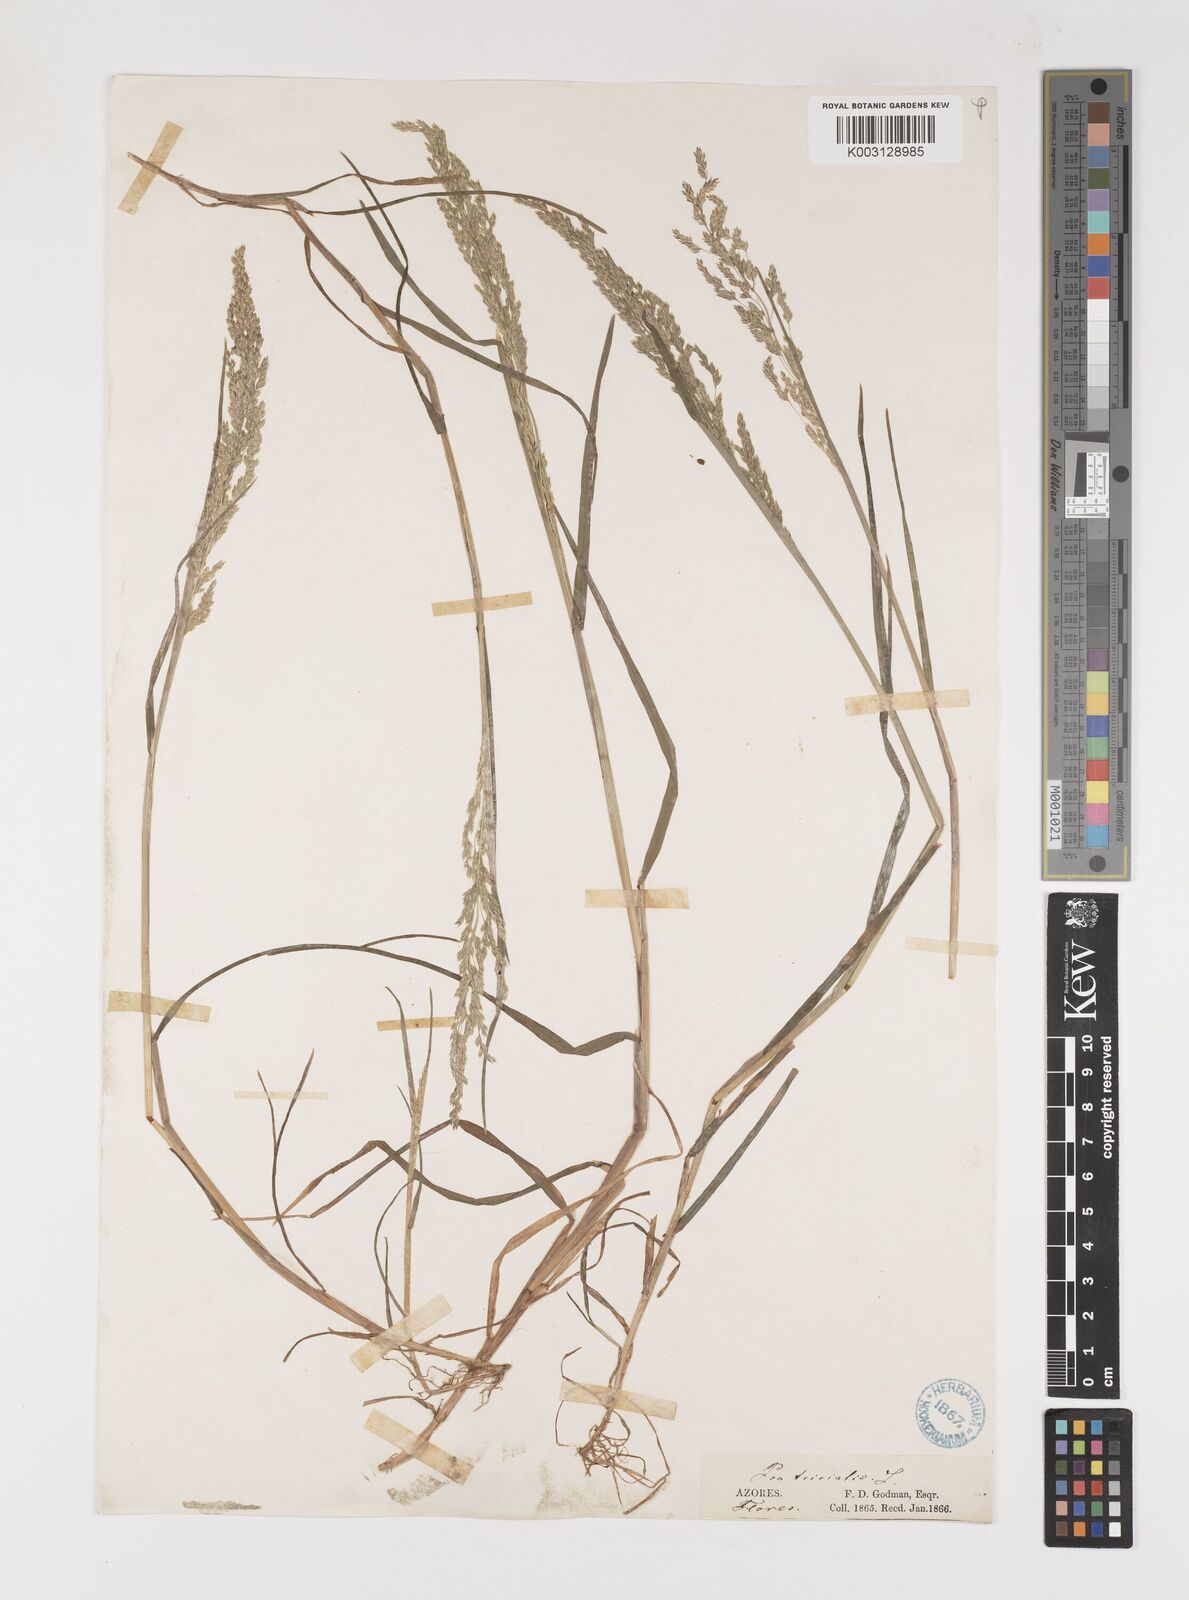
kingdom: Plantae
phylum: Tracheophyta
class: Liliopsida
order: Poales
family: Poaceae
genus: Poa
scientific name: Poa trivialis
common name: Rough bluegrass
